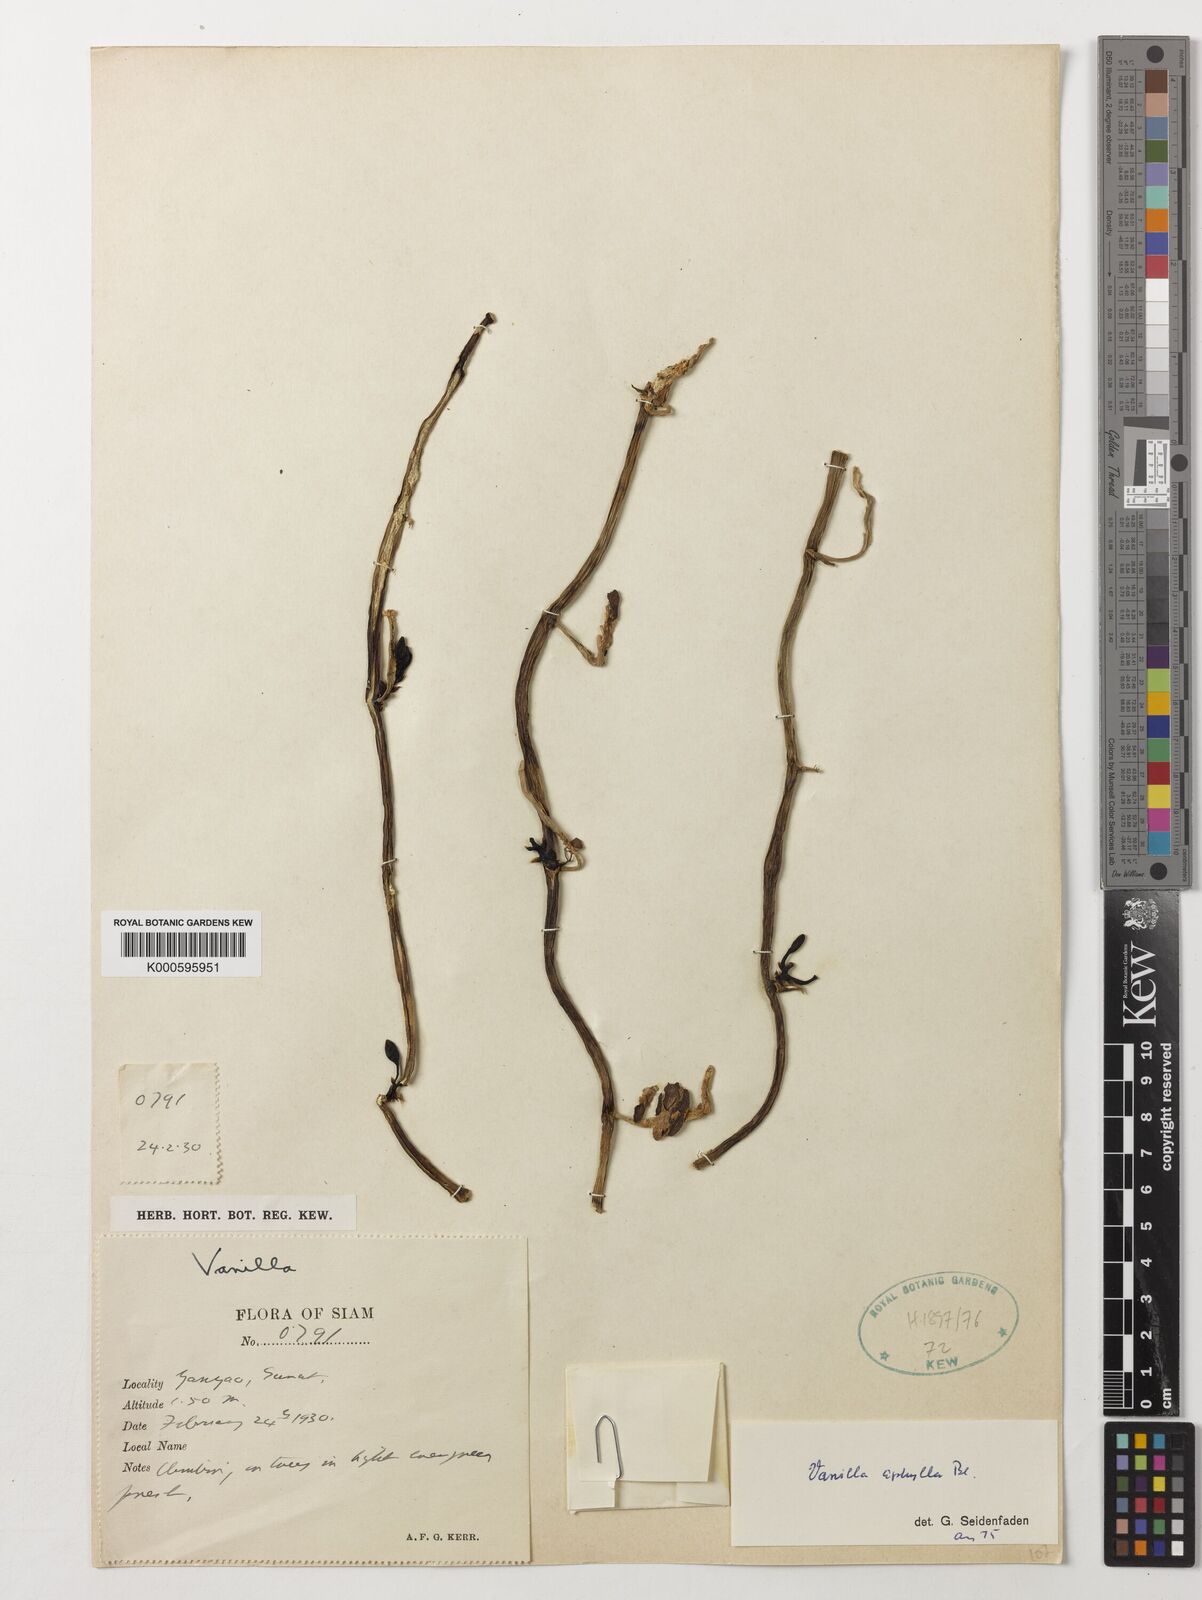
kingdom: Plantae
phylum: Tracheophyta
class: Liliopsida
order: Asparagales
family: Orchidaceae
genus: Vanilla
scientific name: Vanilla aphylla
